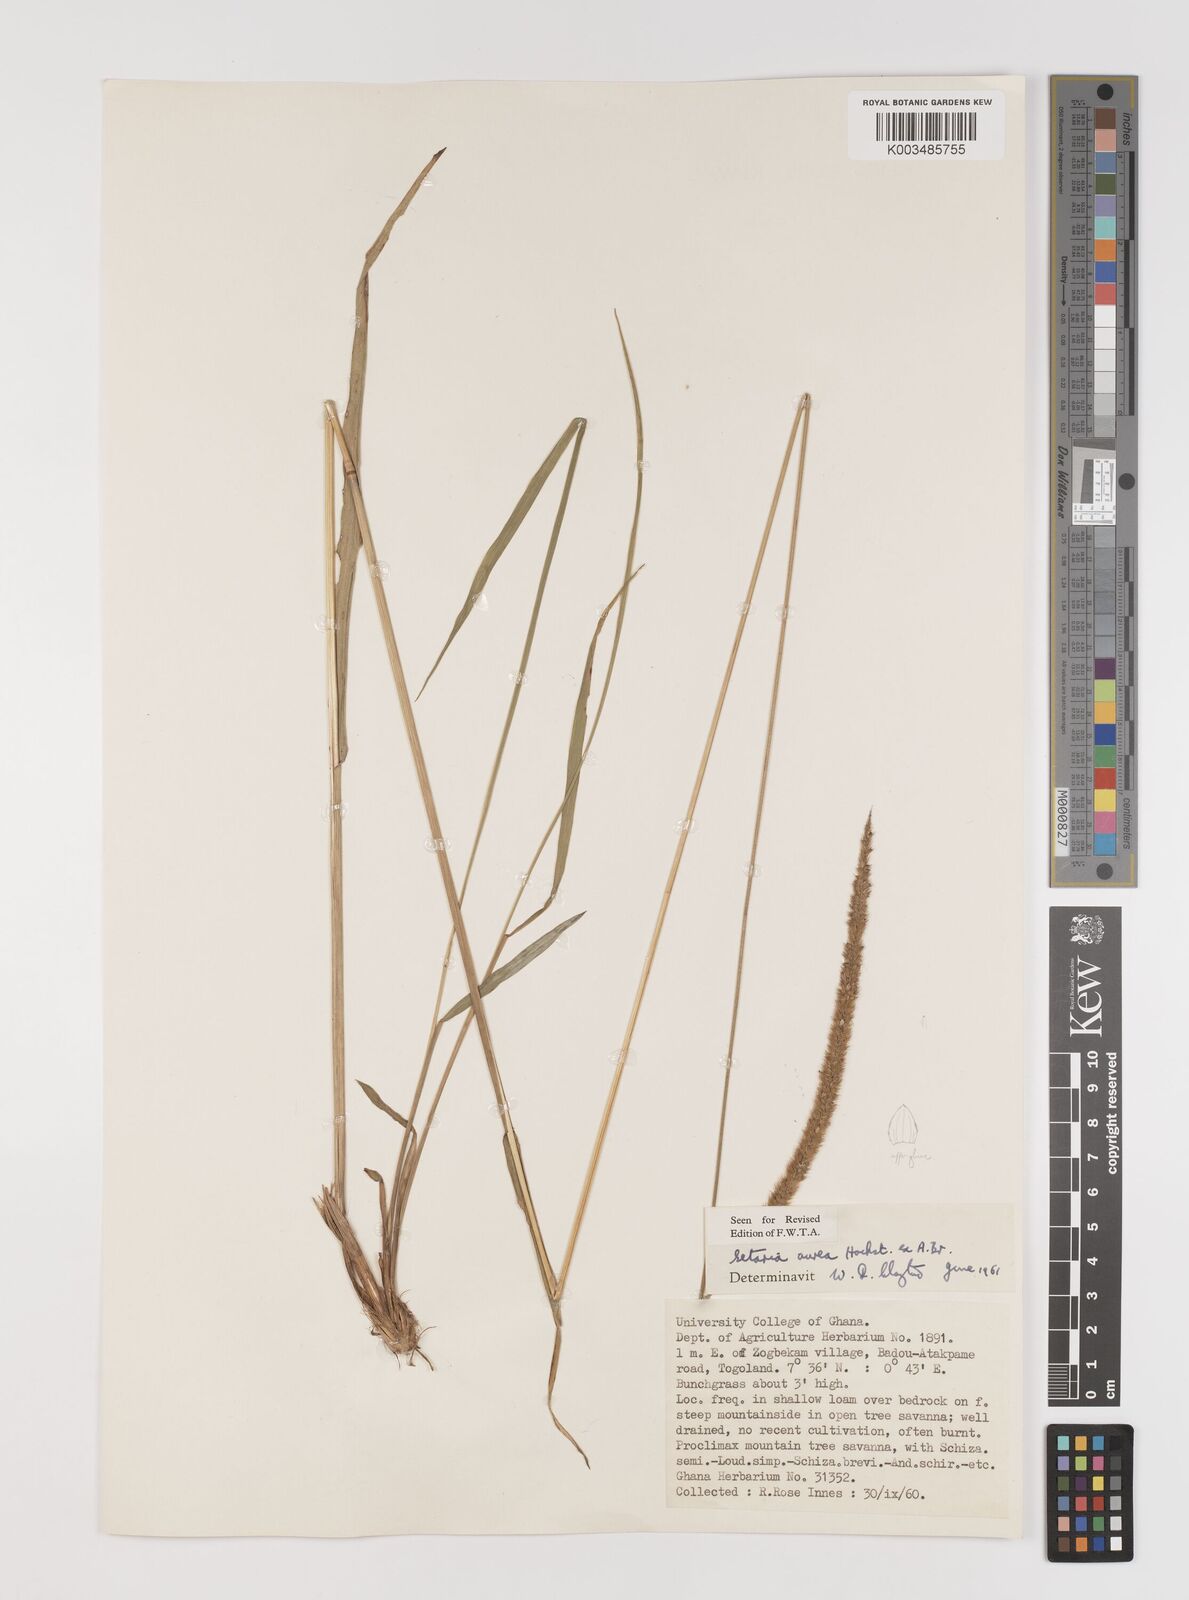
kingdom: Plantae
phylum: Tracheophyta
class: Liliopsida
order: Poales
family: Poaceae
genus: Setaria
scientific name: Setaria sphacelata
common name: African bristlegrass
